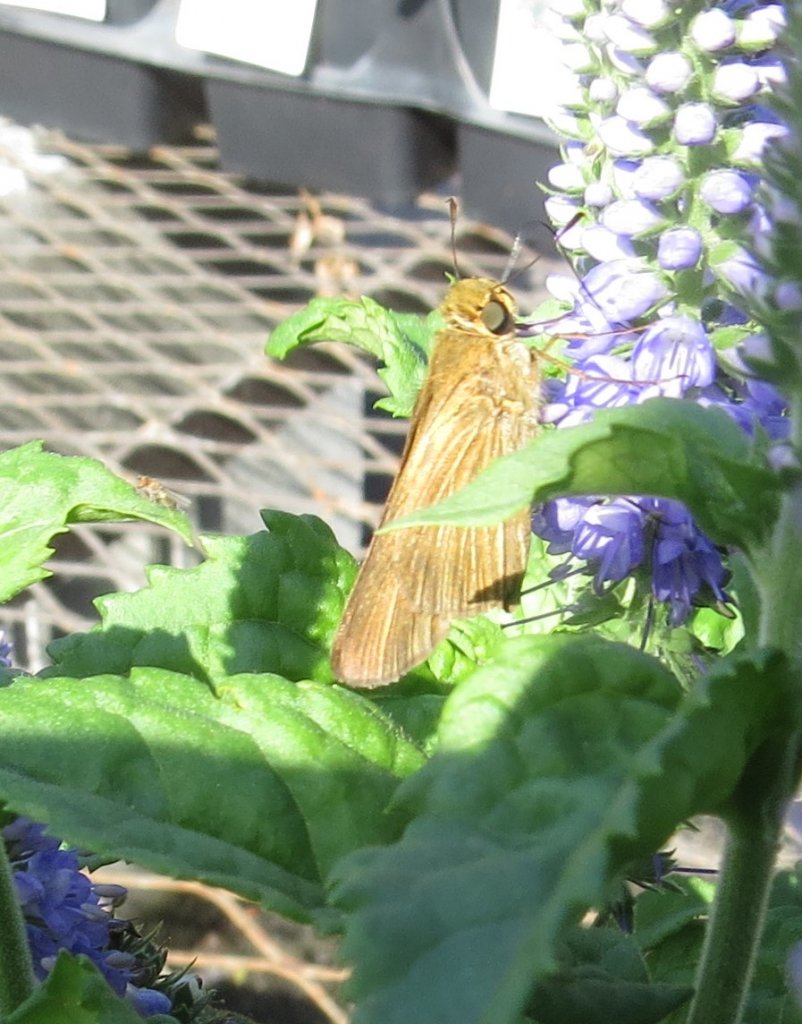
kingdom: Animalia
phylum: Arthropoda
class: Insecta
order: Lepidoptera
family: Hesperiidae
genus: Panoquina
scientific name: Panoquina ocola
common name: Ocola Skipper
